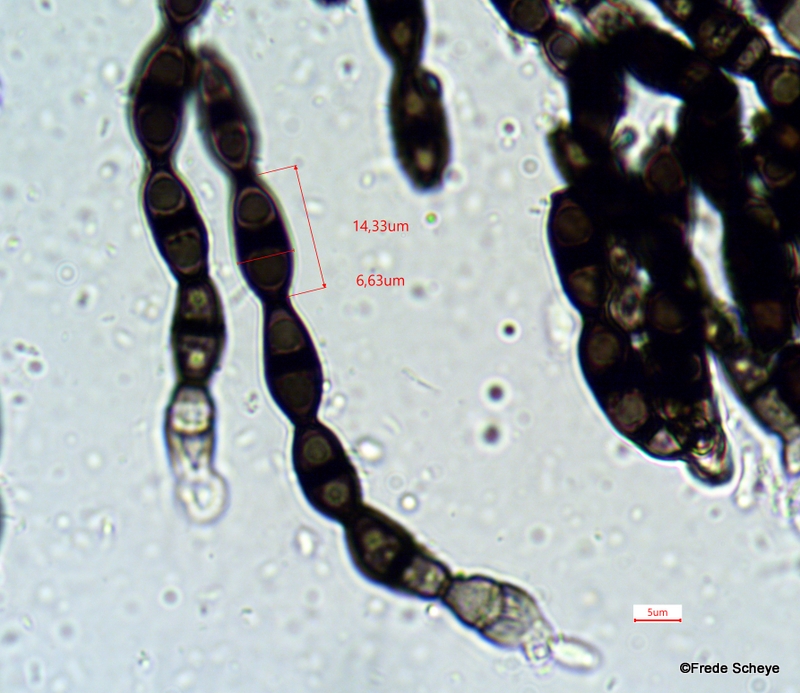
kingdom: Fungi
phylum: Ascomycota
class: Leotiomycetes
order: Helotiales
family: Helotiaceae
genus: Bispora
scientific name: Bispora pallescens
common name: måtte-snitskive
